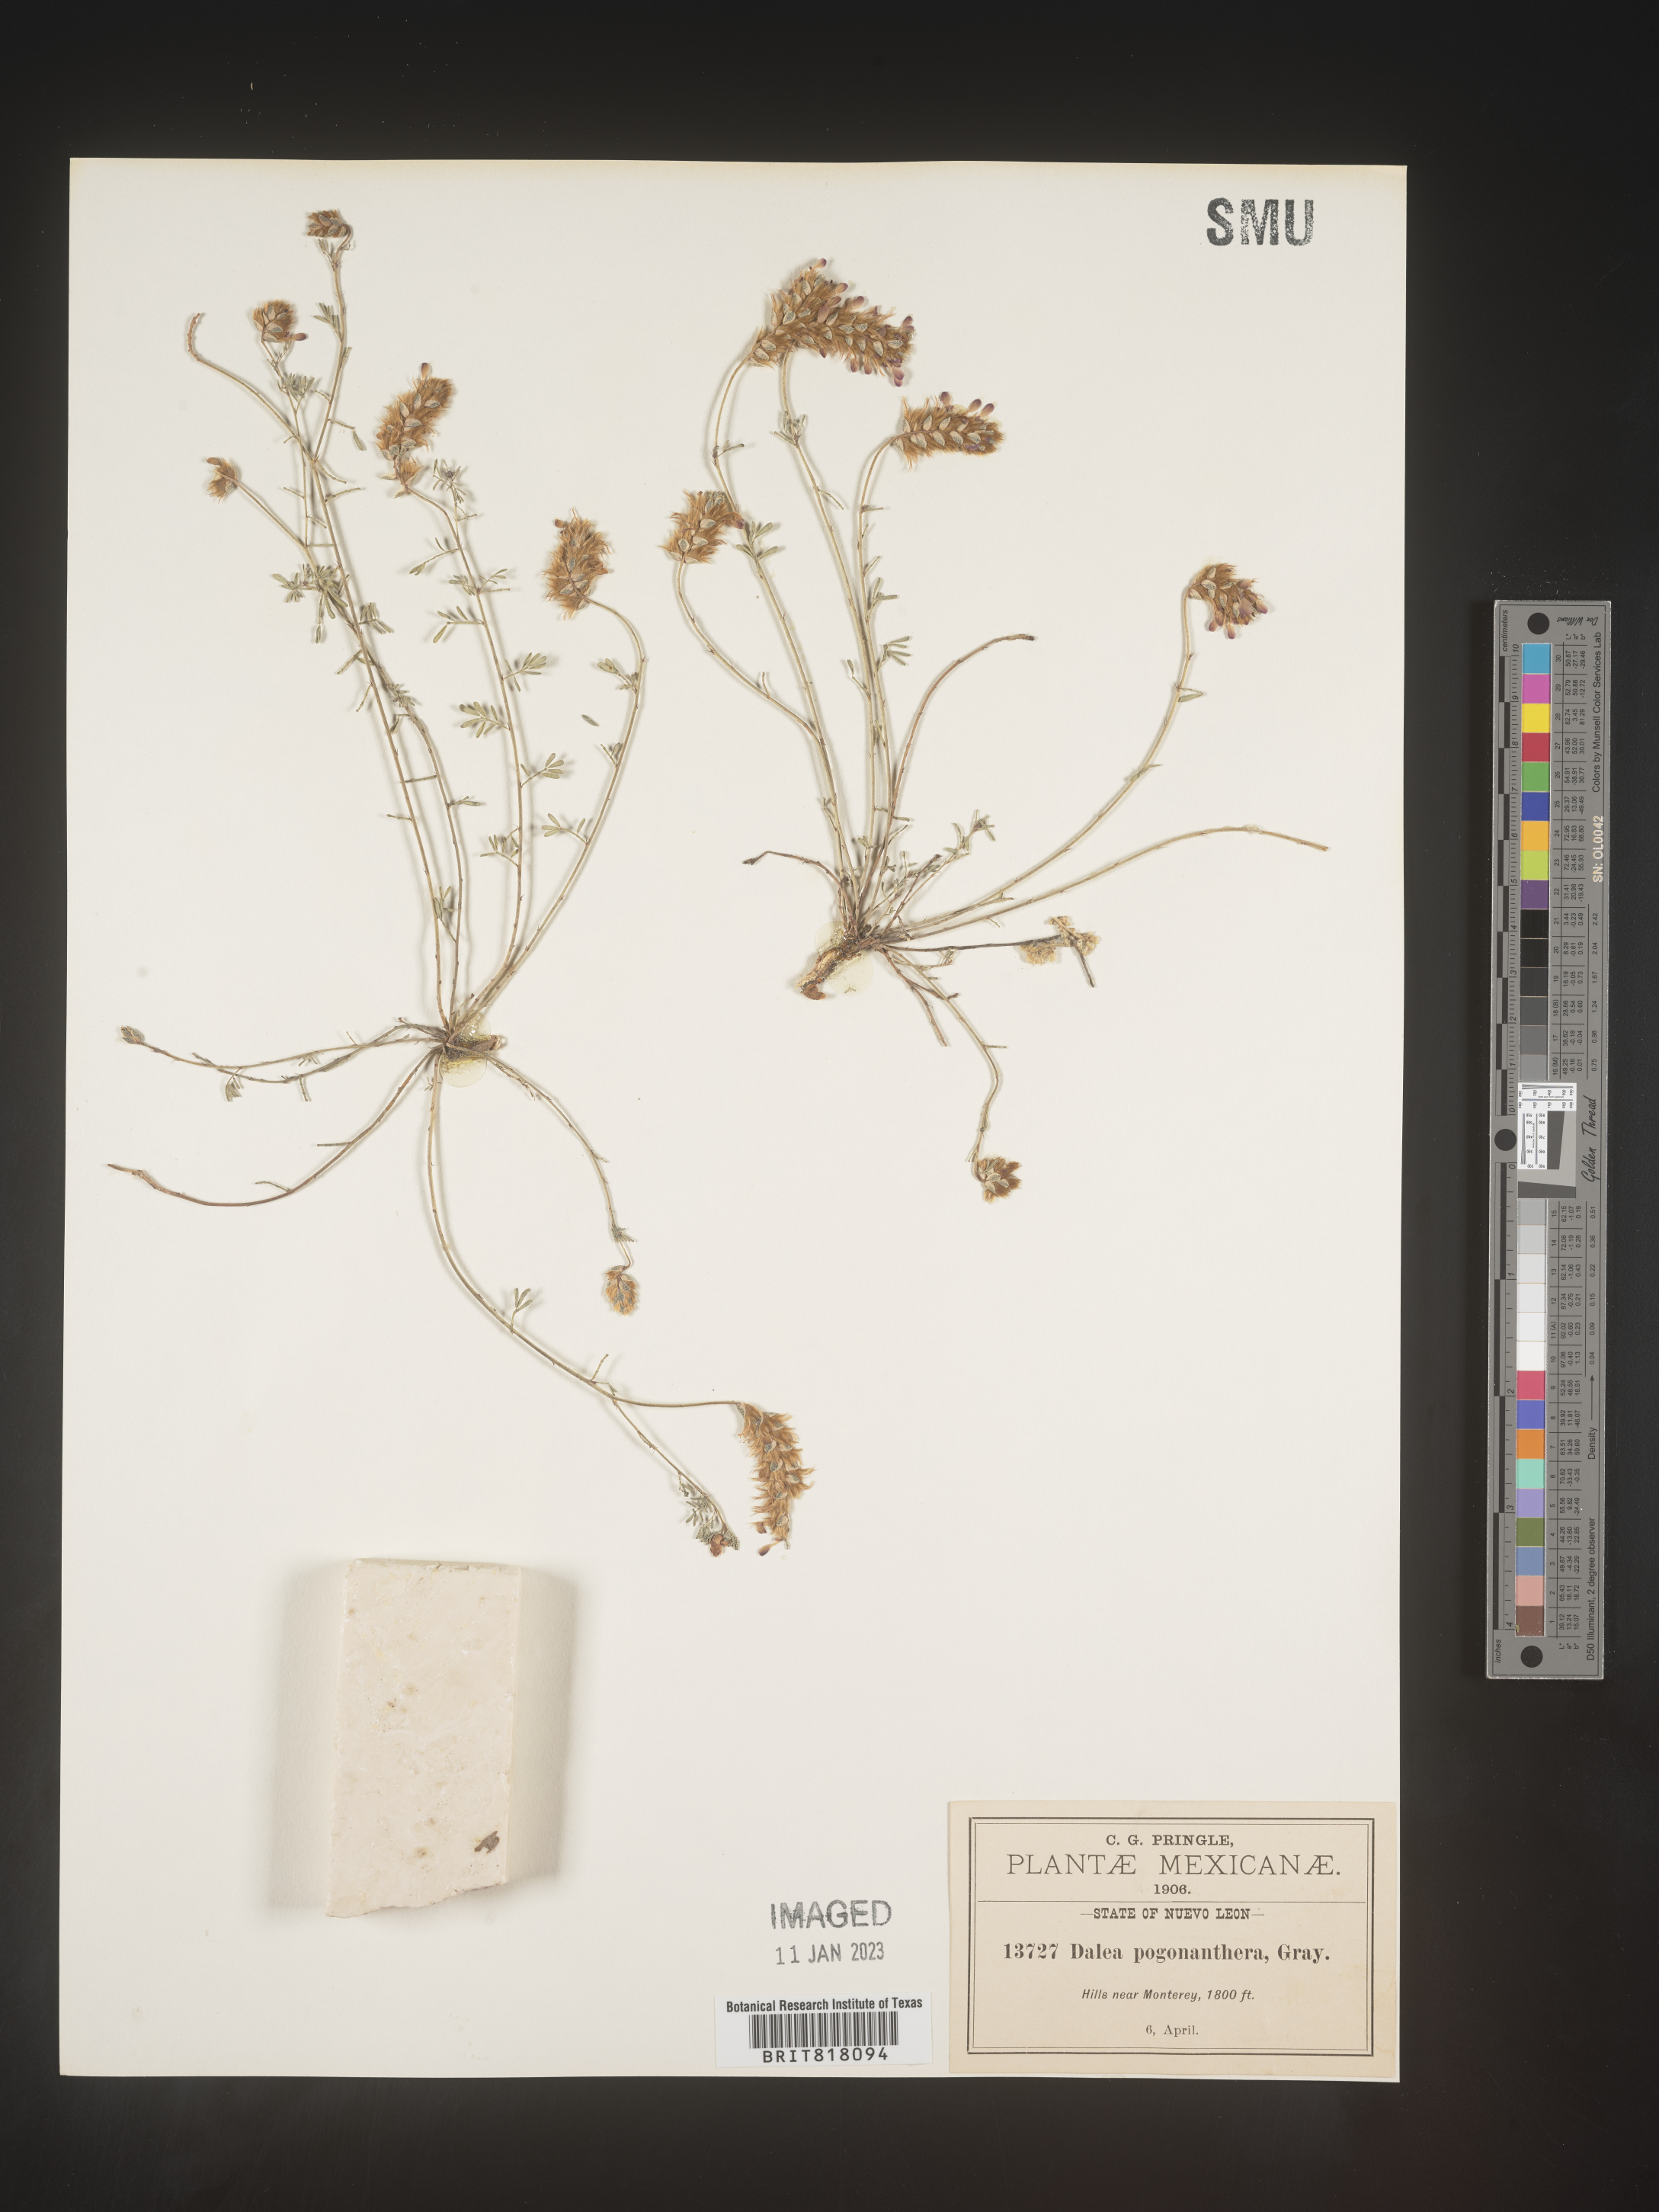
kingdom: Plantae
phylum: Tracheophyta
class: Magnoliopsida
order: Fabales
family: Fabaceae
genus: Dalea
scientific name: Dalea
